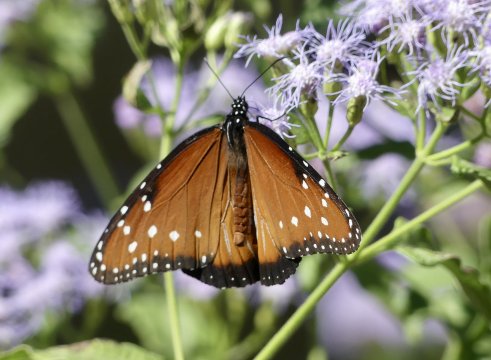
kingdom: Animalia
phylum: Arthropoda
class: Insecta
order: Lepidoptera
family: Nymphalidae
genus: Danaus
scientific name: Danaus gilippus
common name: Queen
